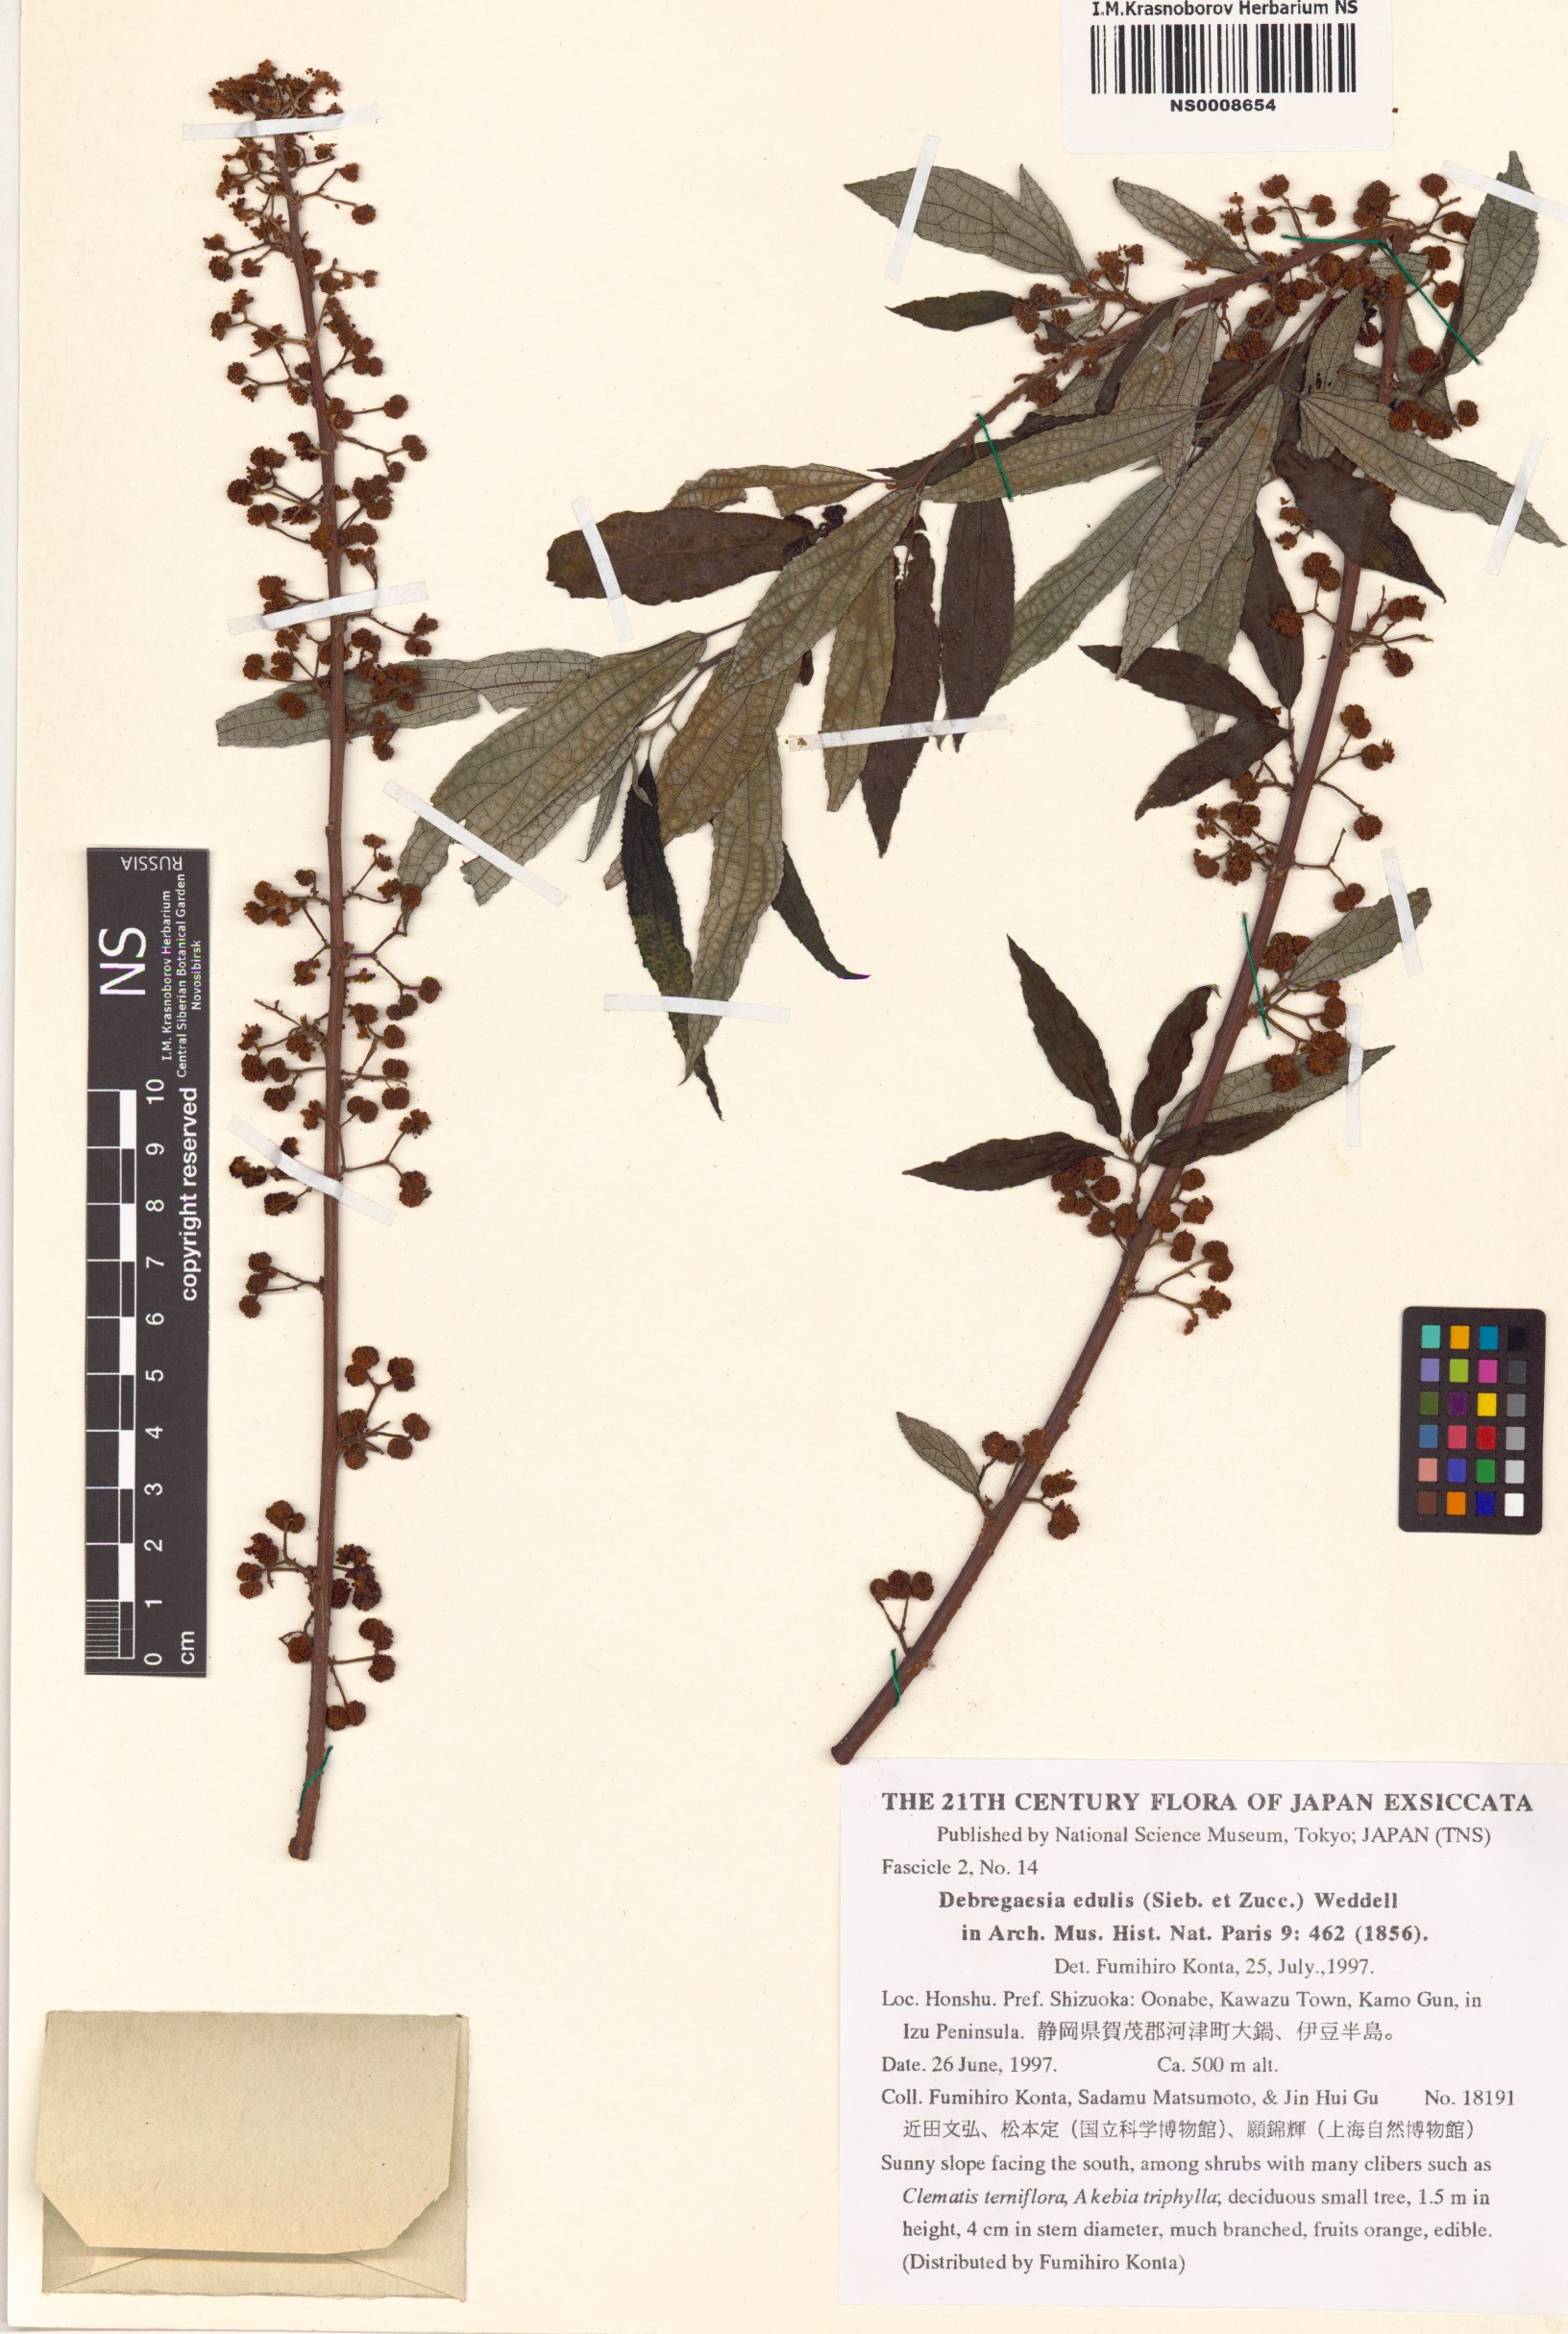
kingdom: Plantae
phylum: Tracheophyta
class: Magnoliopsida
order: Rosales
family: Urticaceae
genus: Debregeasia
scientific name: Debregeasia edulis
